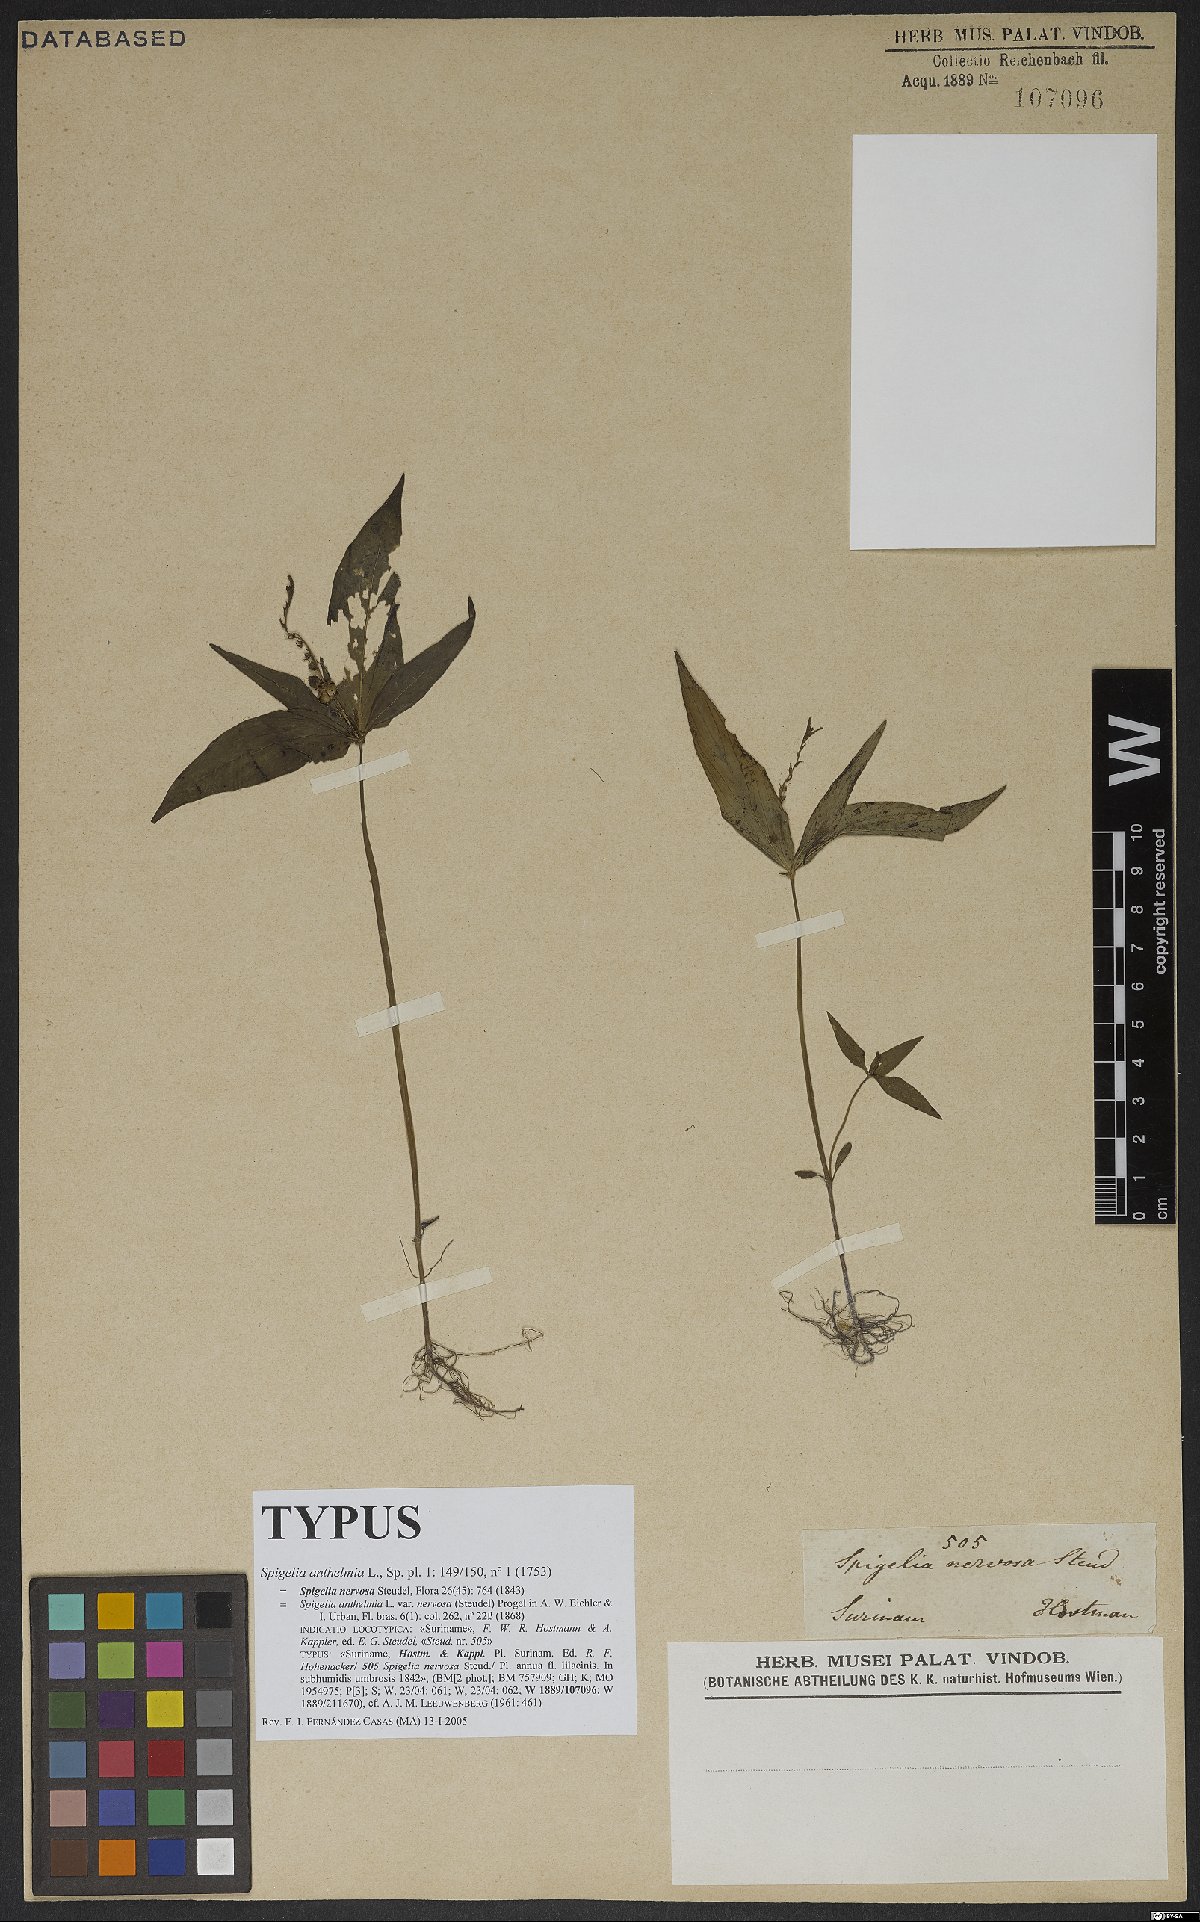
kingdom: Plantae
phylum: Tracheophyta
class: Magnoliopsida
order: Gentianales
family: Loganiaceae
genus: Spigelia
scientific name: Spigelia anthelmia
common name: West indian-pink
